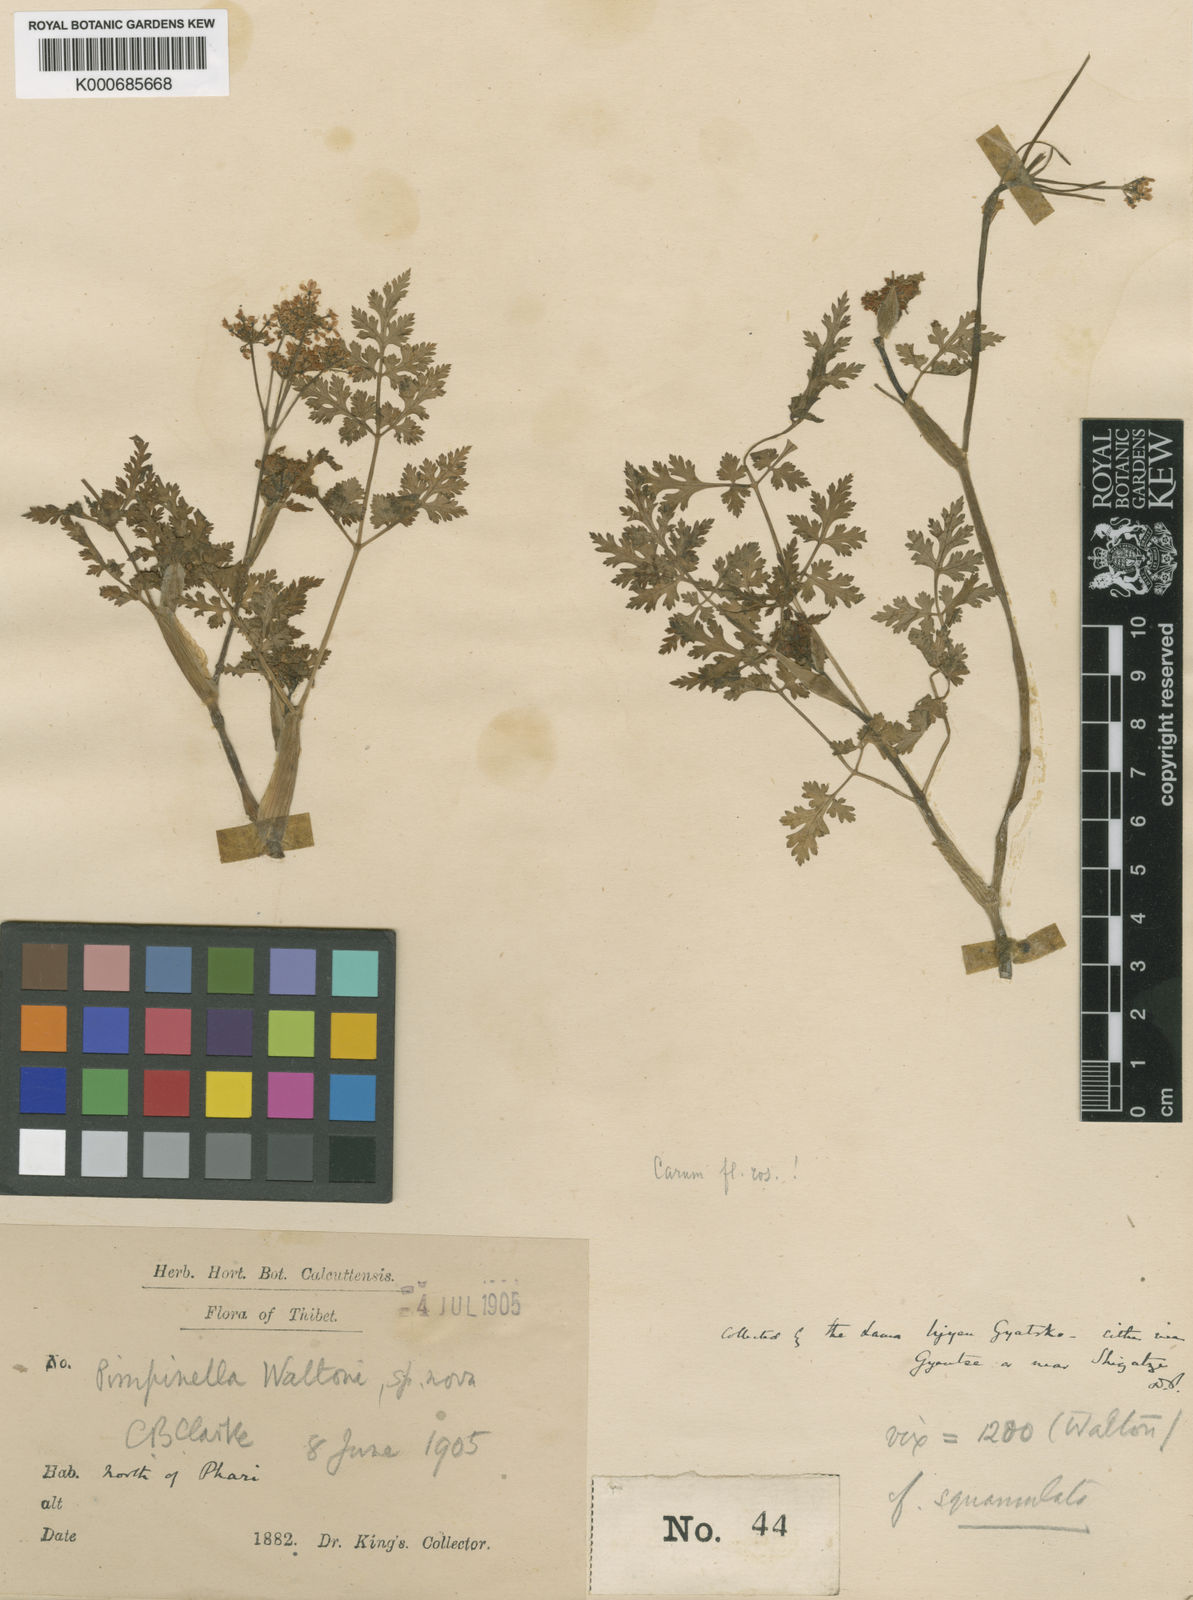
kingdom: Plantae
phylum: Tracheophyta
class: Magnoliopsida
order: Apiales
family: Apiaceae
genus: Carum
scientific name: Carum
